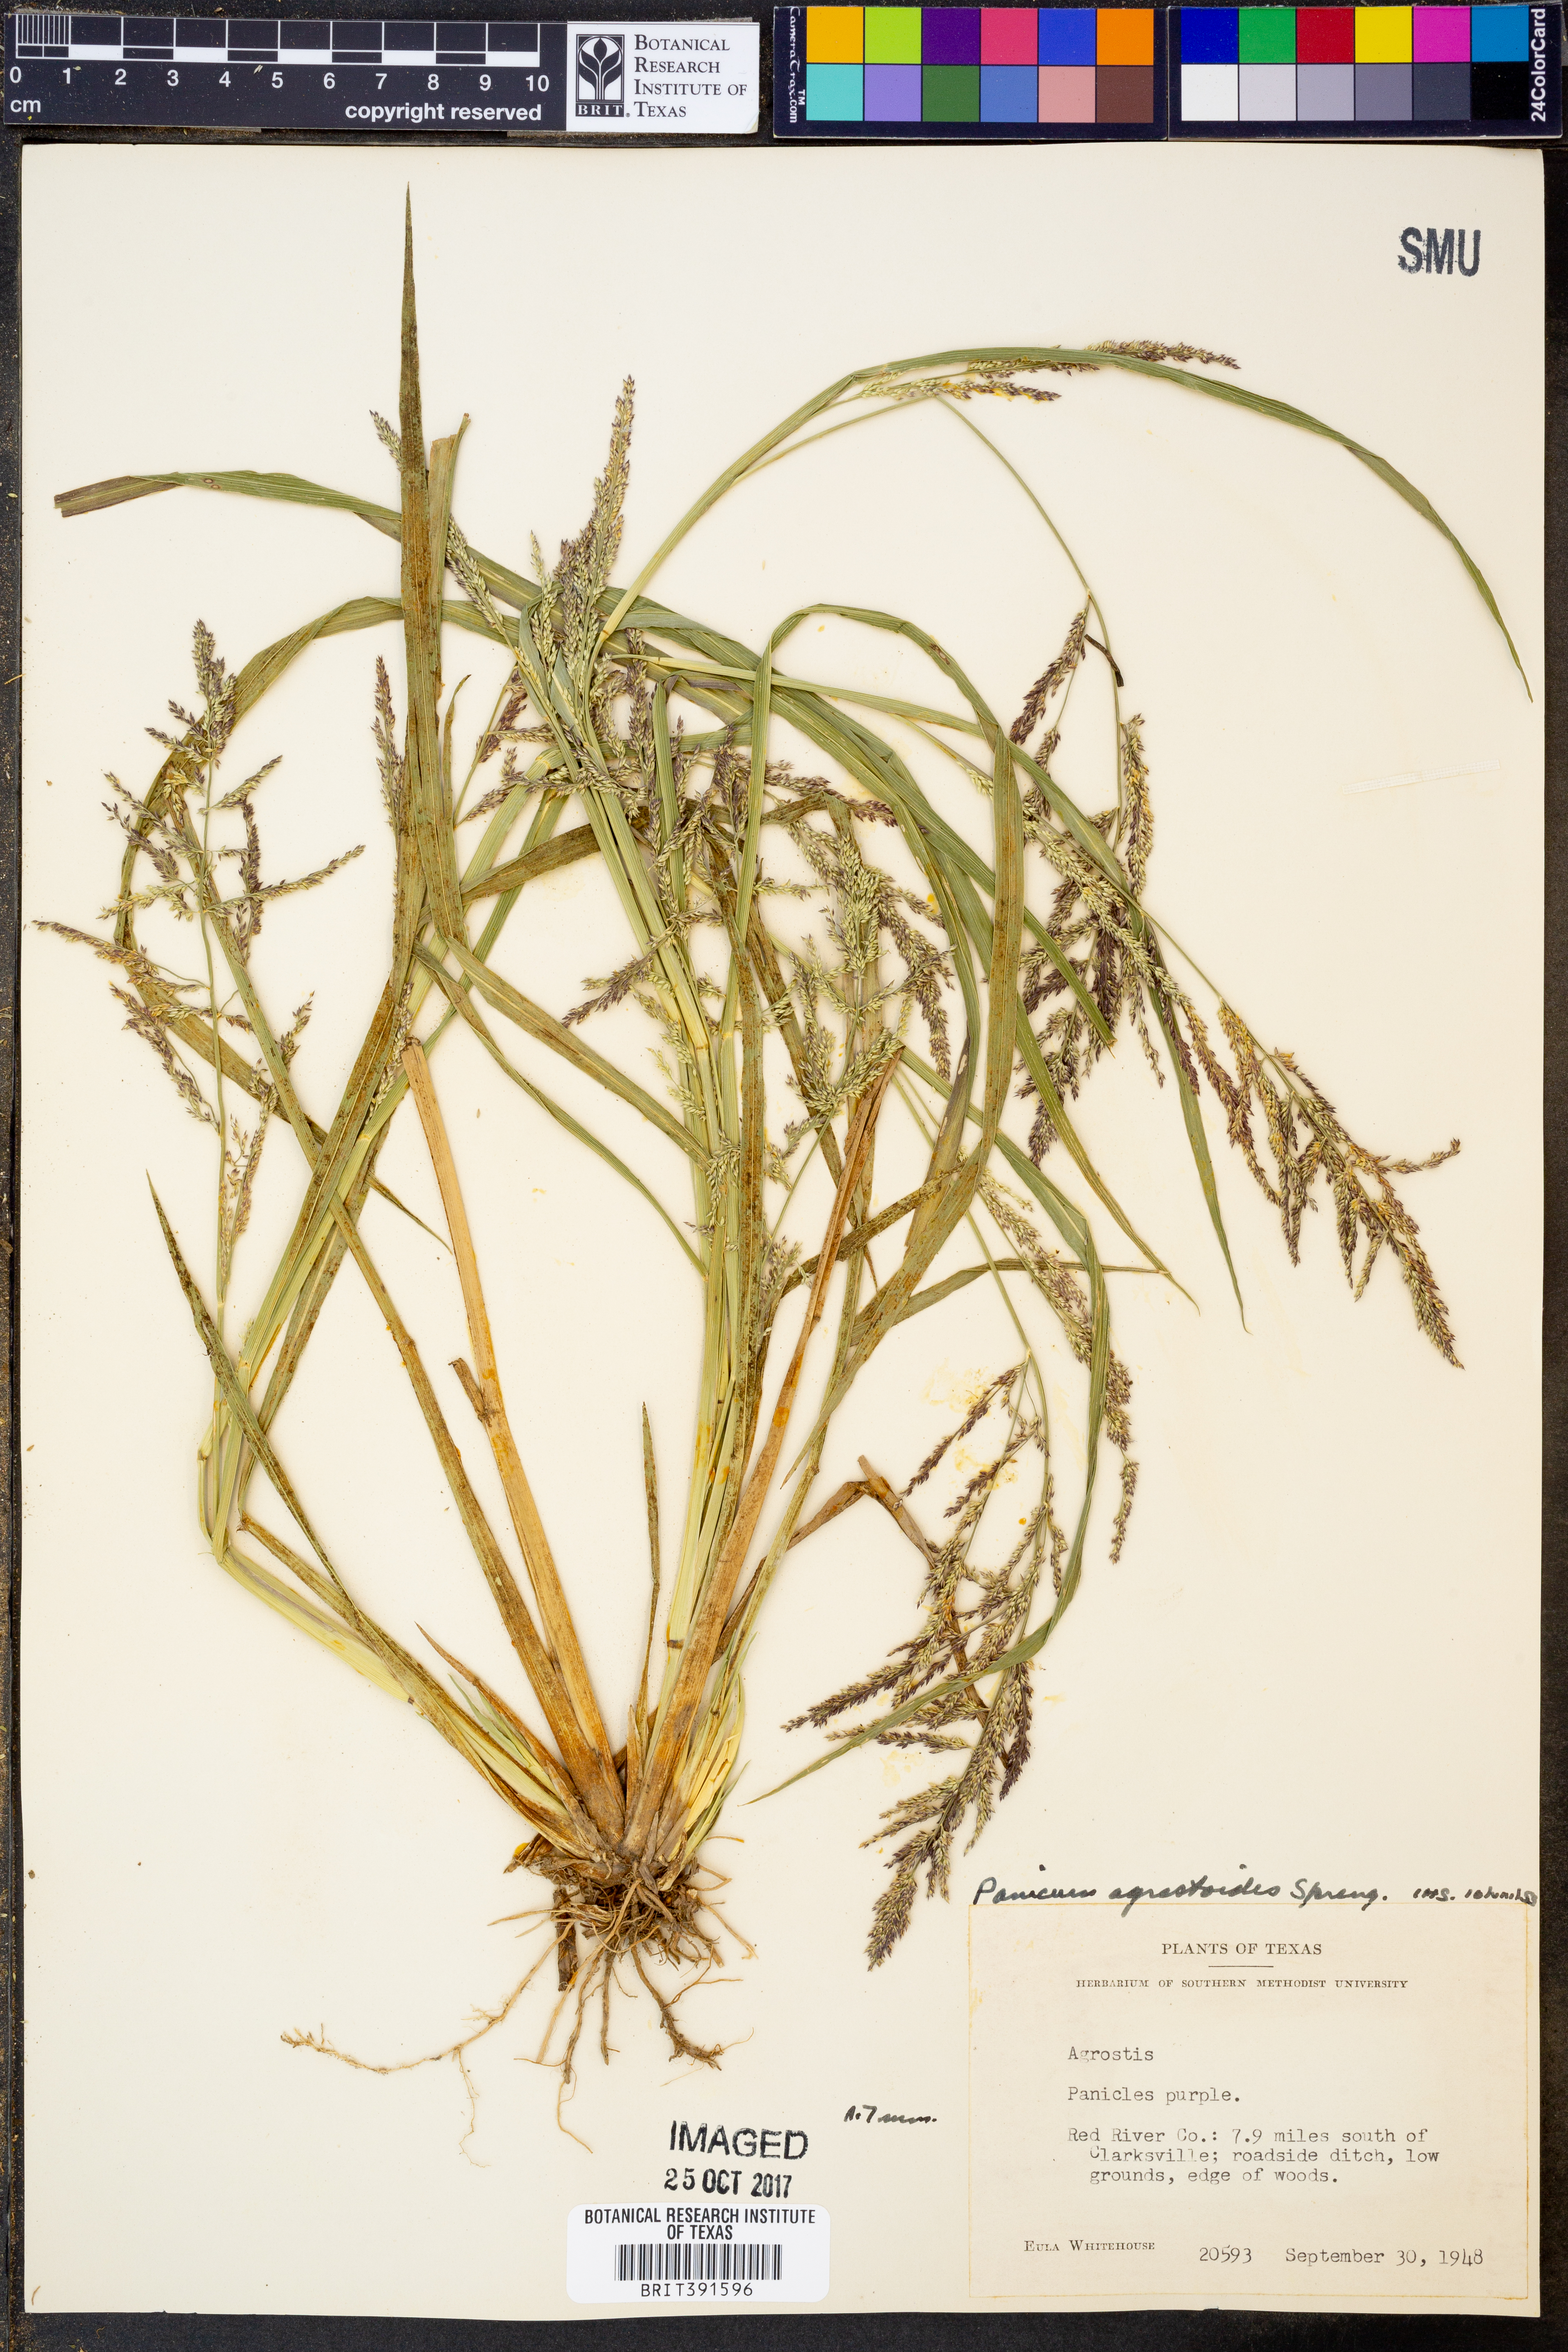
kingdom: Plantae
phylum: Tracheophyta
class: Liliopsida
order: Poales
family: Poaceae
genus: Steinchisma
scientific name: Steinchisma laxum
